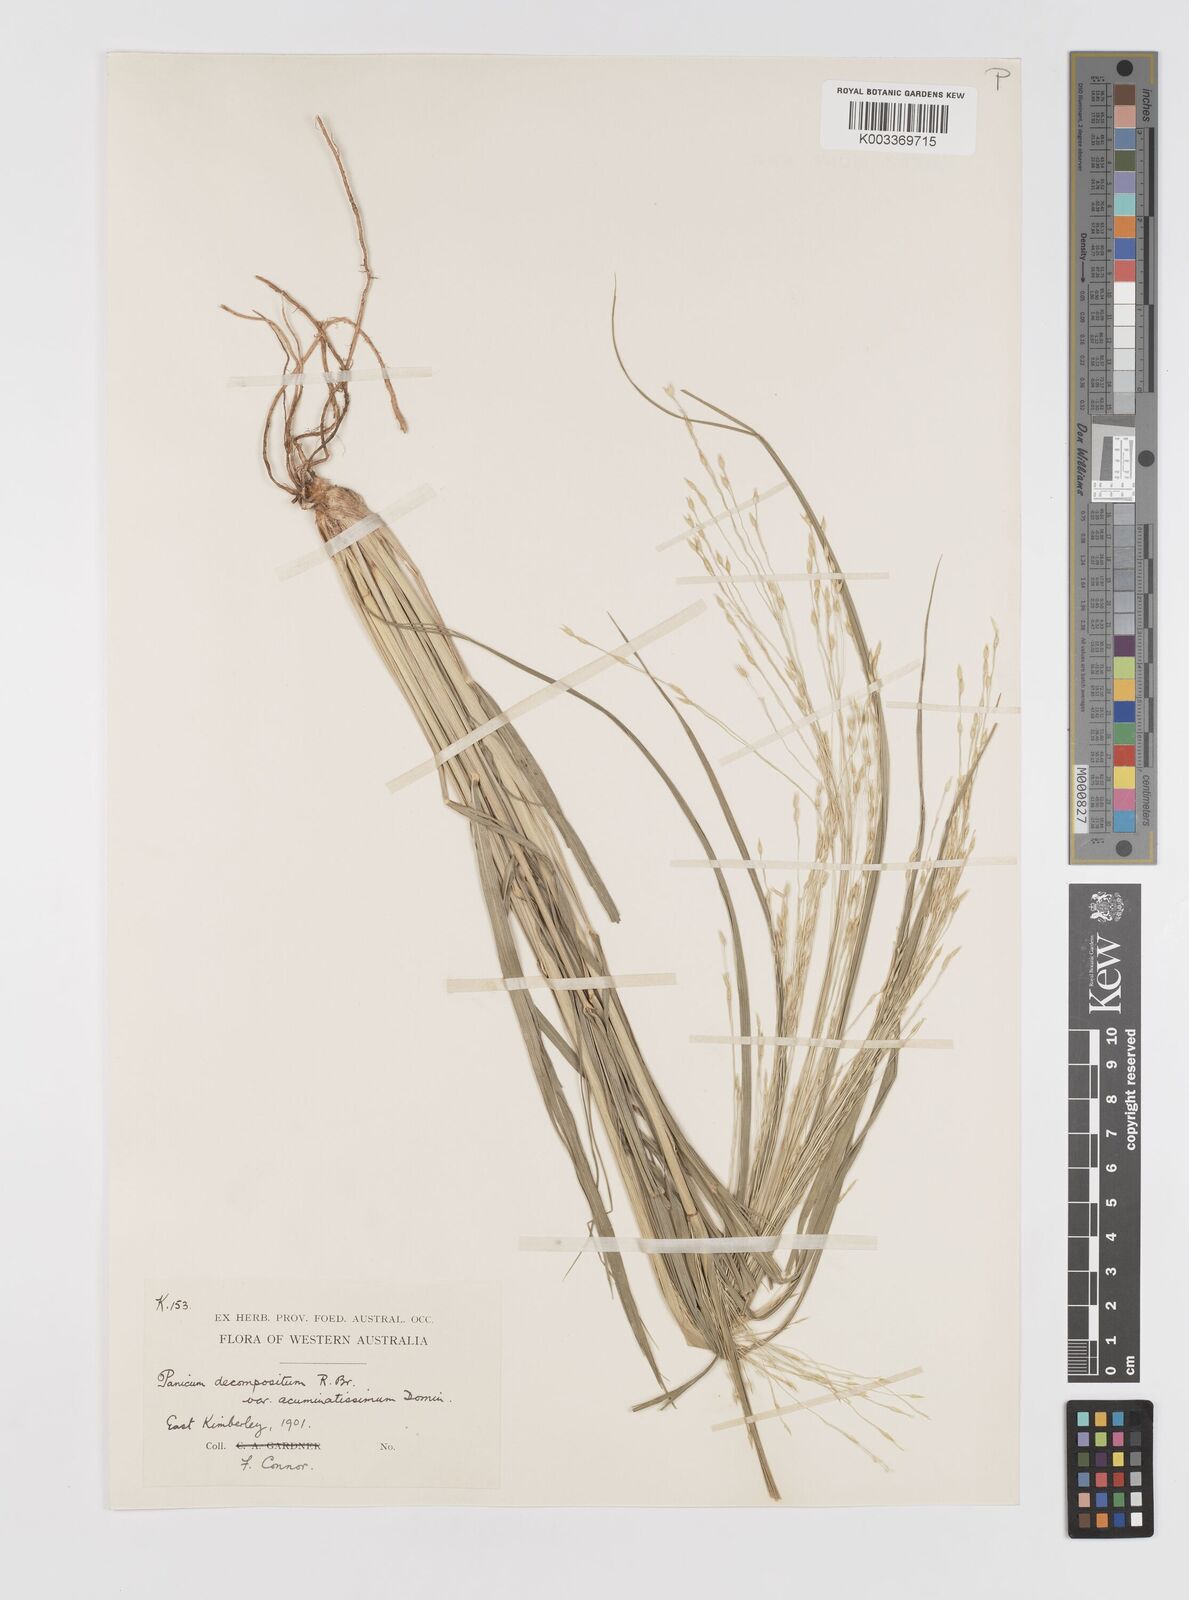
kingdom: Plantae
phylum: Tracheophyta
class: Liliopsida
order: Poales
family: Poaceae
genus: Panicum
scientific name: Panicum latzii
